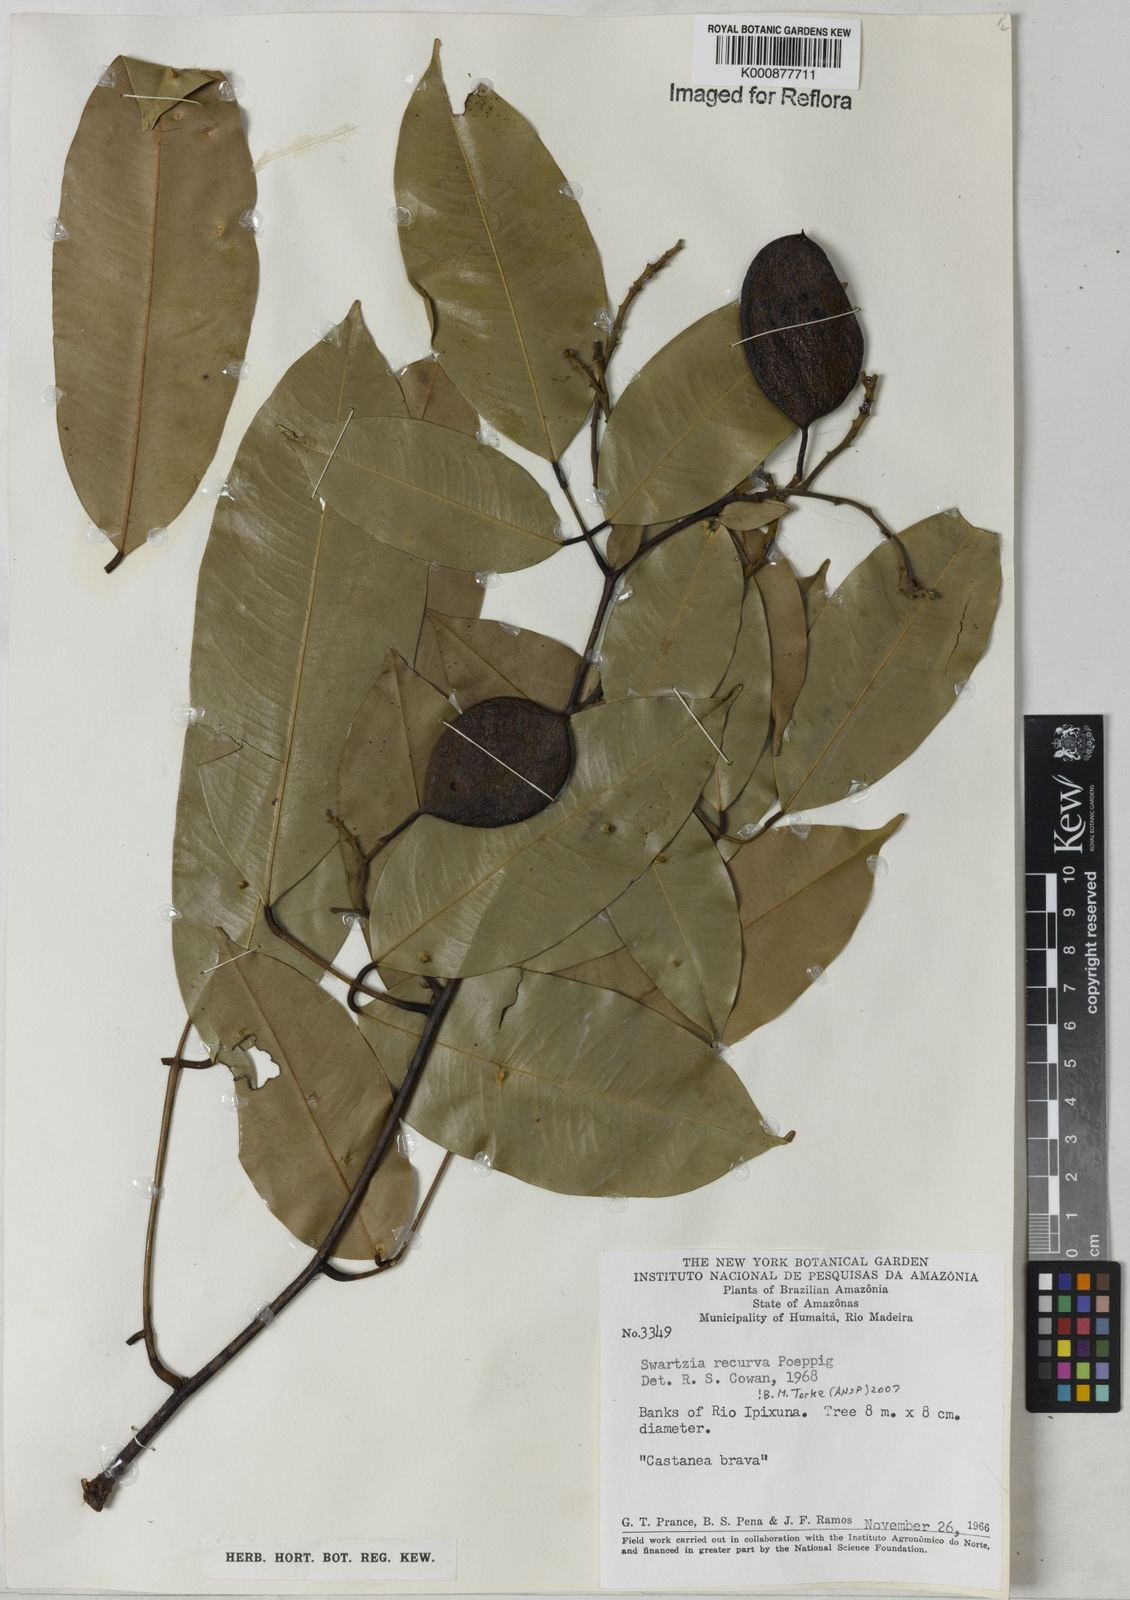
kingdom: Plantae
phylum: Tracheophyta
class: Magnoliopsida
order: Fabales
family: Fabaceae
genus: Swartzia
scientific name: Swartzia recurva
